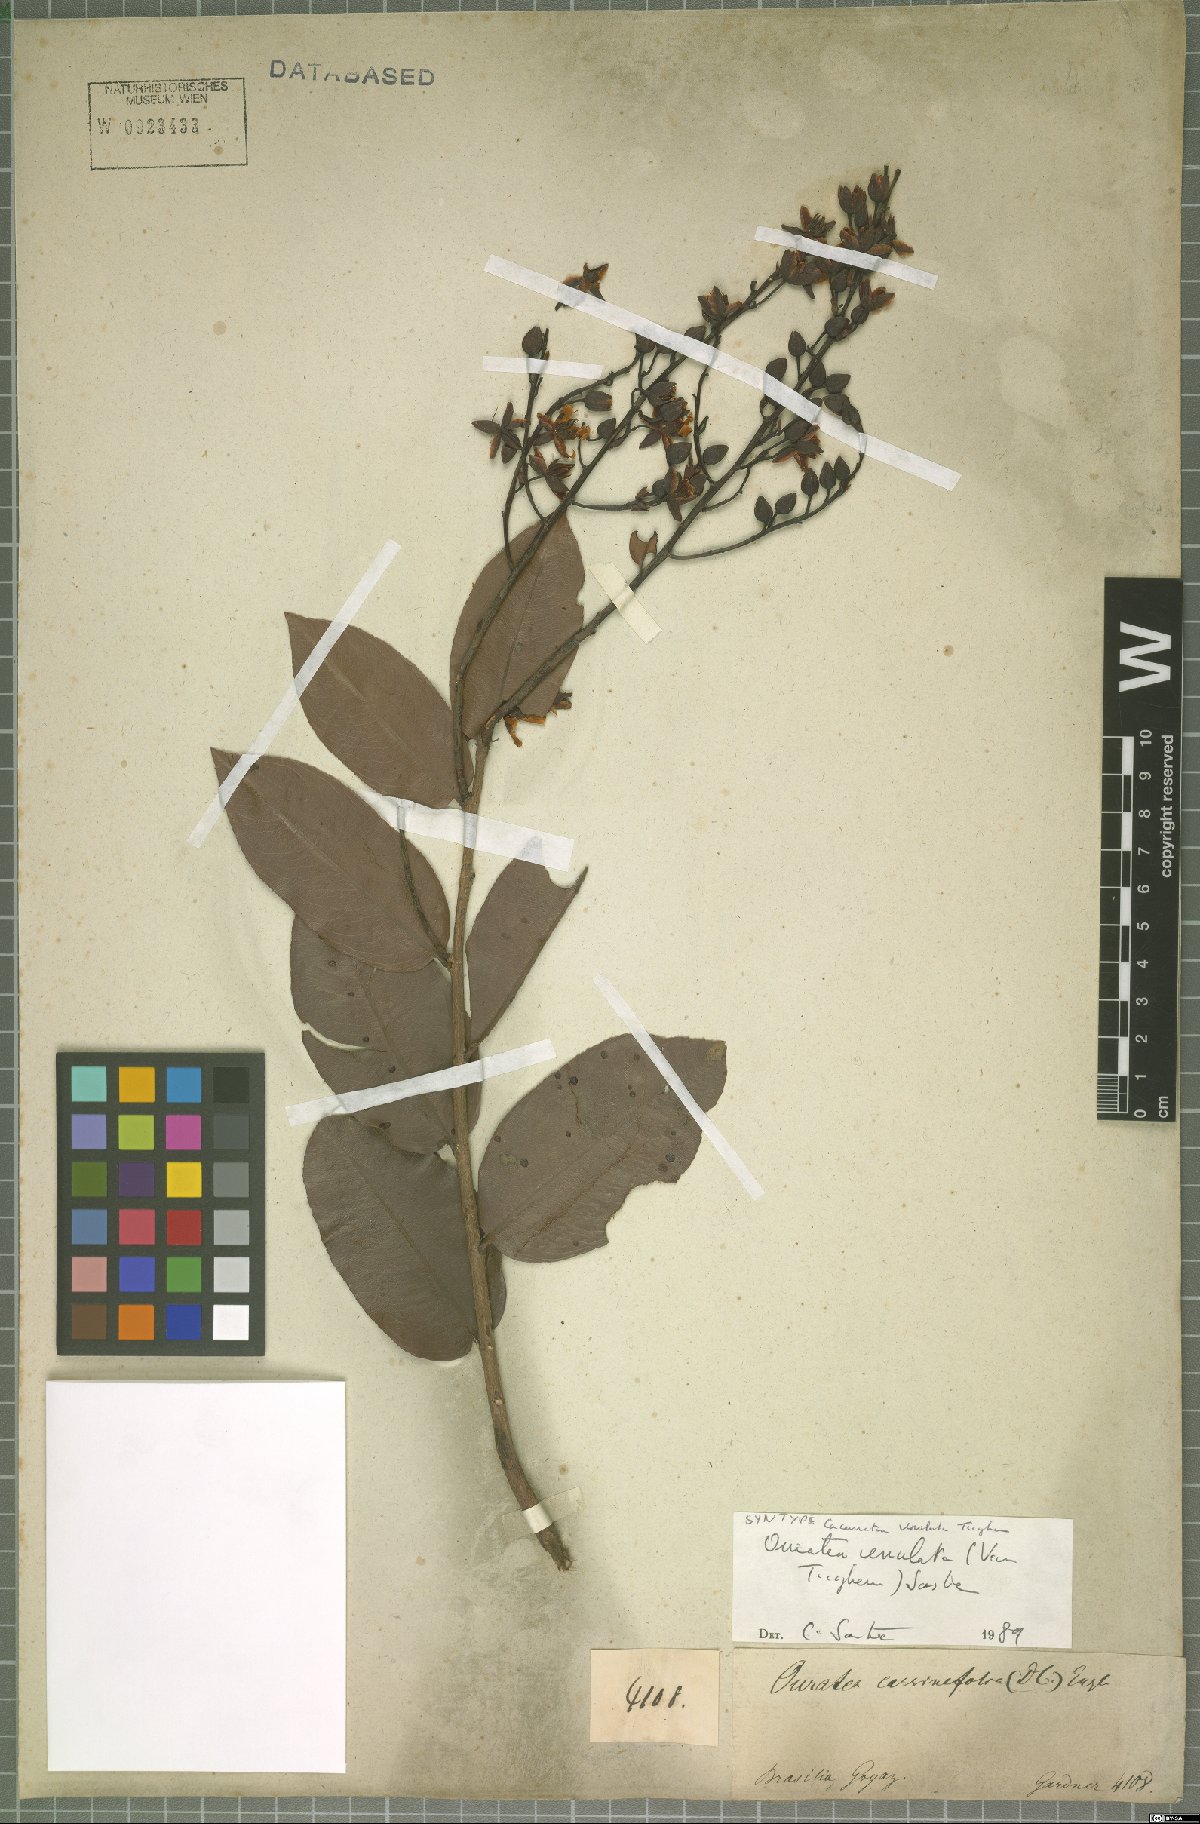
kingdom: Plantae
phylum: Tracheophyta
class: Magnoliopsida
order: Malpighiales
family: Ochnaceae
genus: Ouratea
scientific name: Ouratea venulata
